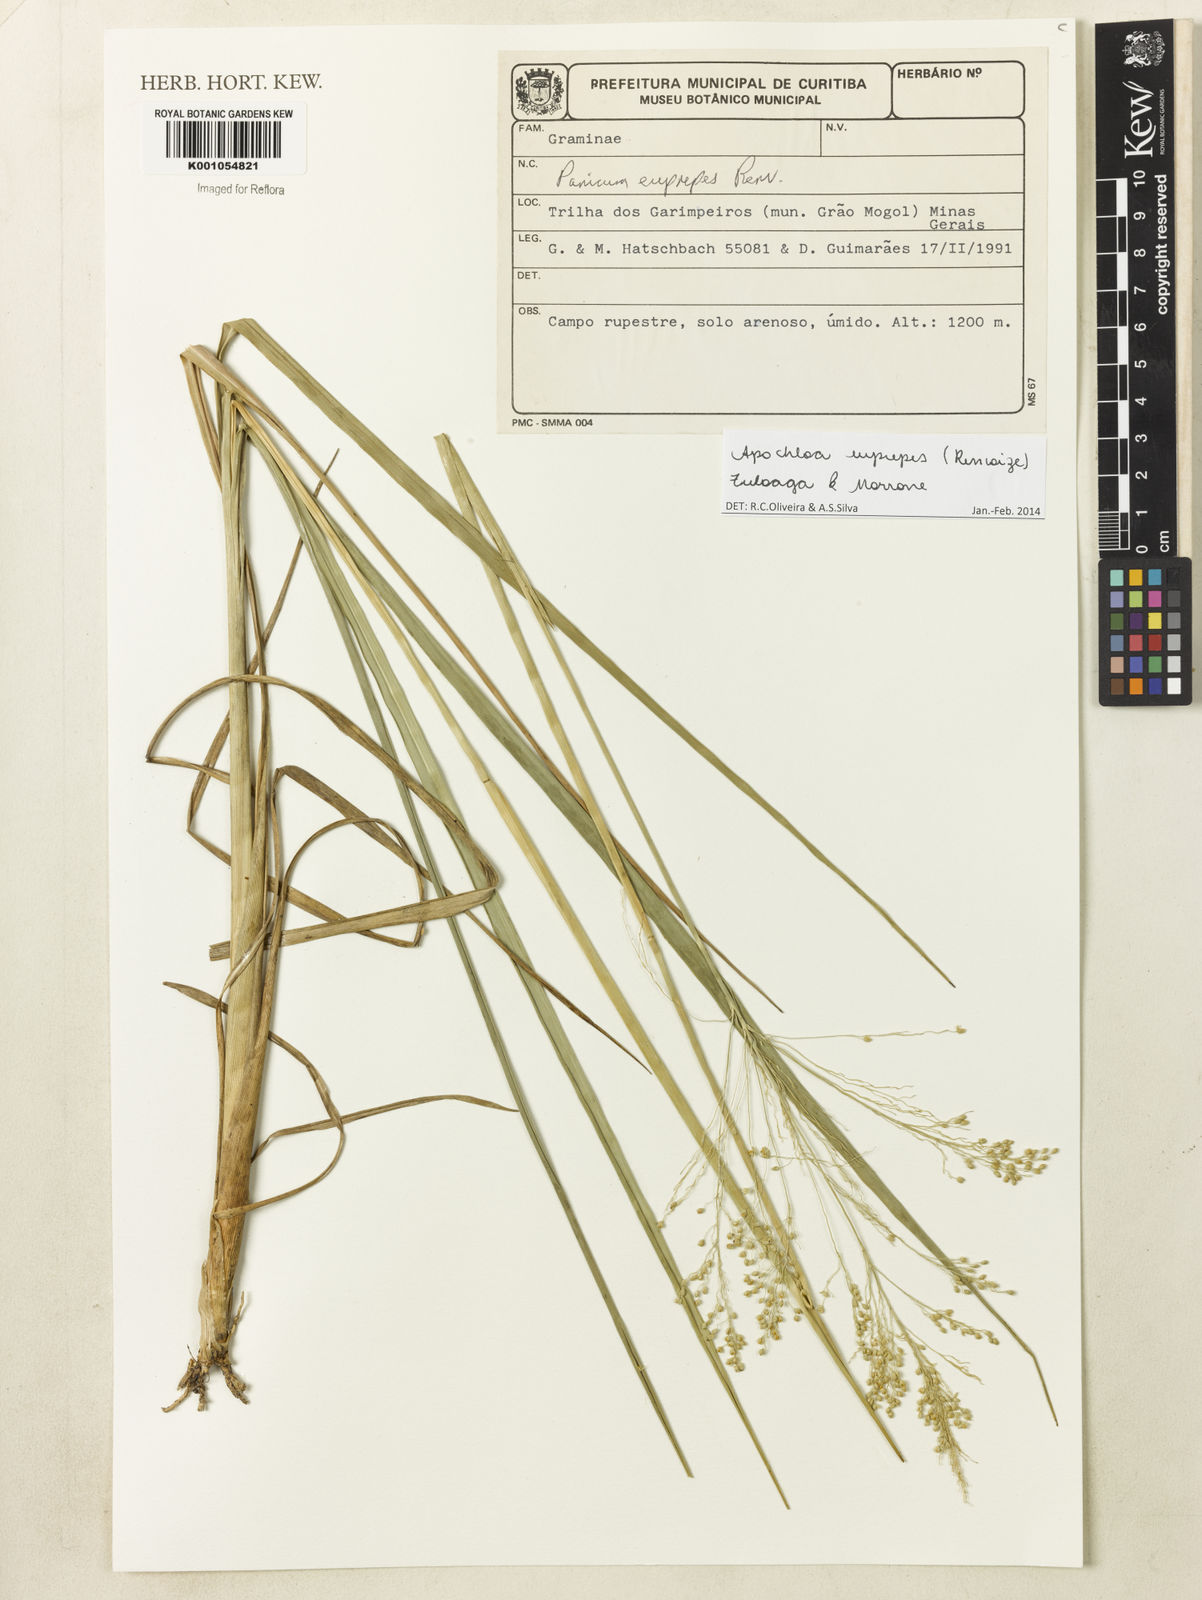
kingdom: Plantae
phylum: Tracheophyta
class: Liliopsida
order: Poales
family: Poaceae
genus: Apochloa
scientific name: Apochloa euprepes
